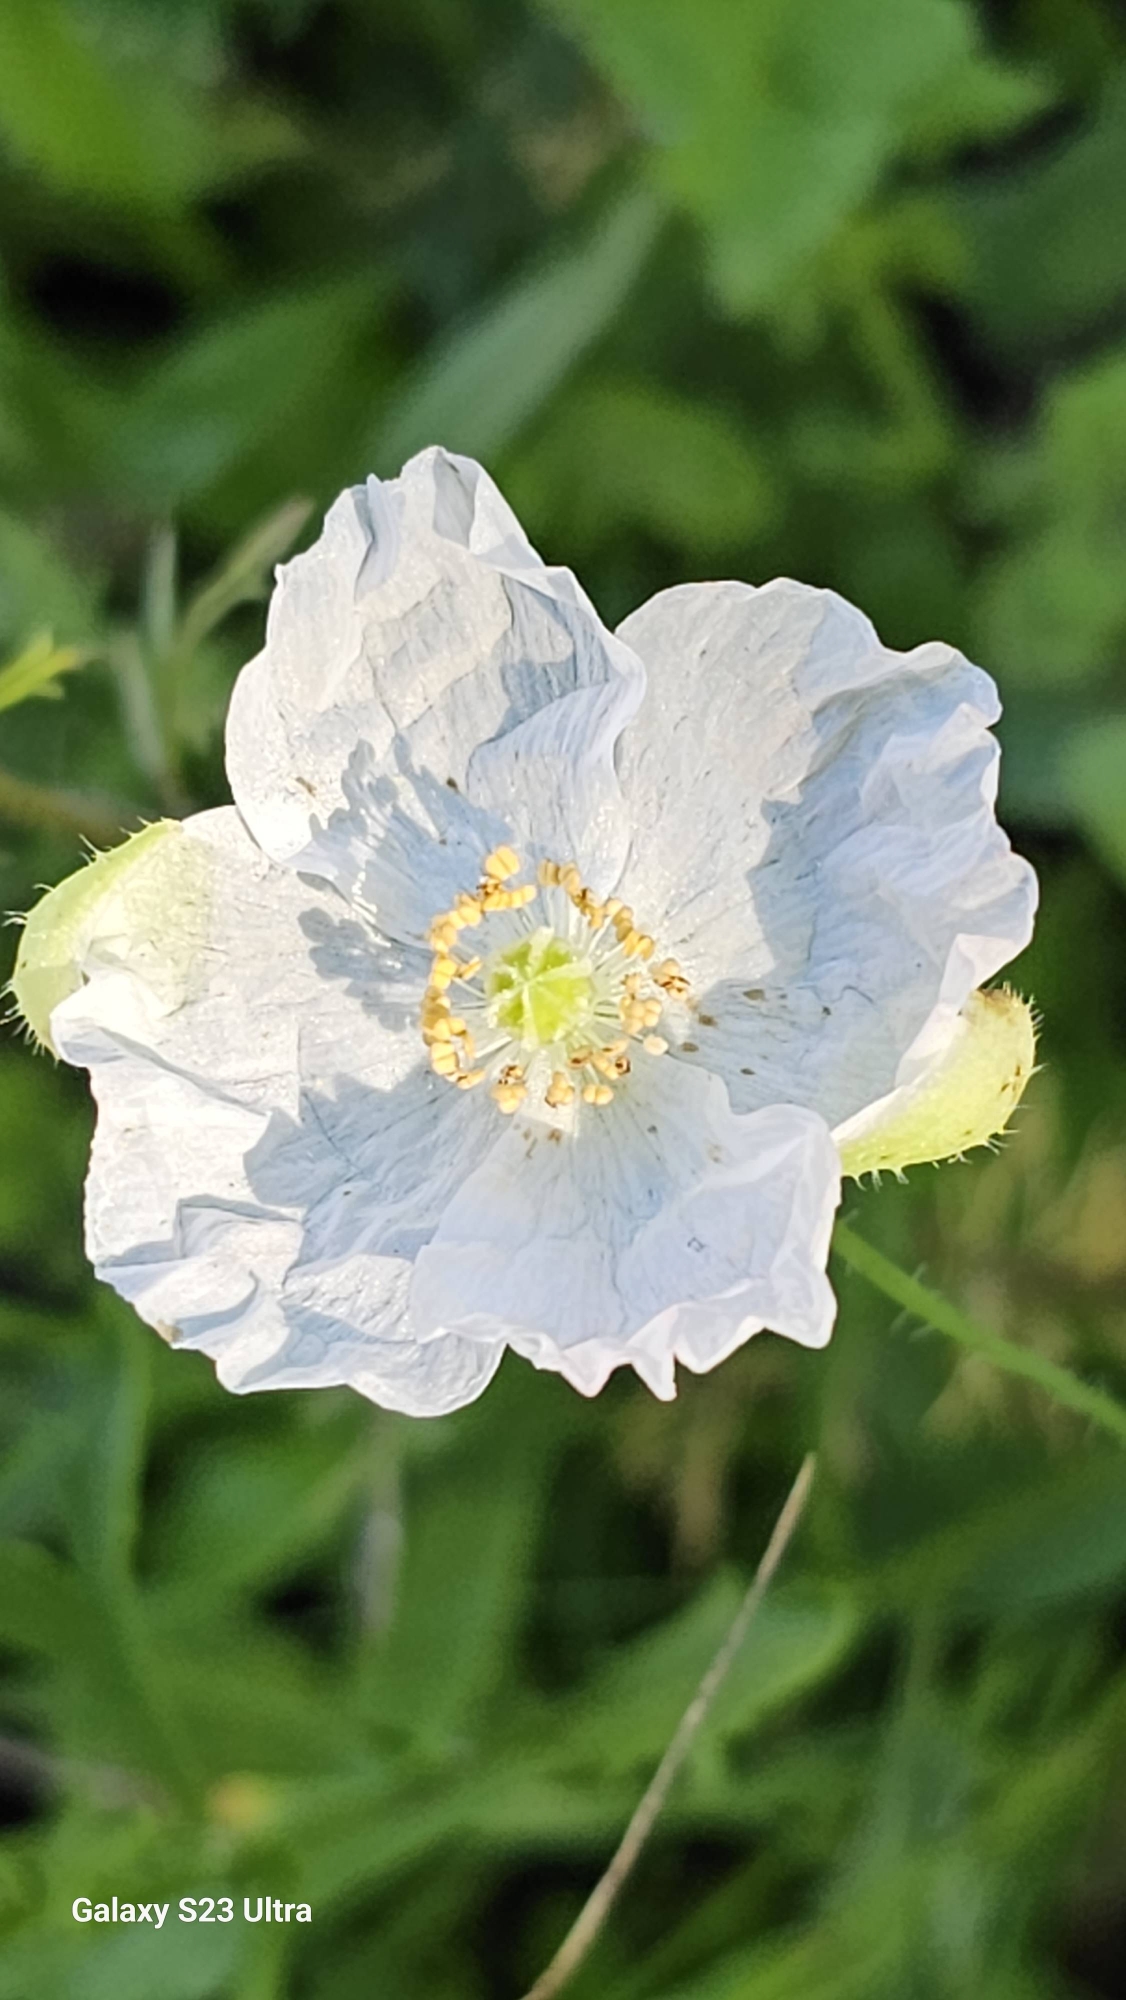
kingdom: Plantae
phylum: Tracheophyta
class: Magnoliopsida
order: Ranunculales
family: Papaveraceae
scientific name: Papaveraceae
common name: Valmuefamilien
